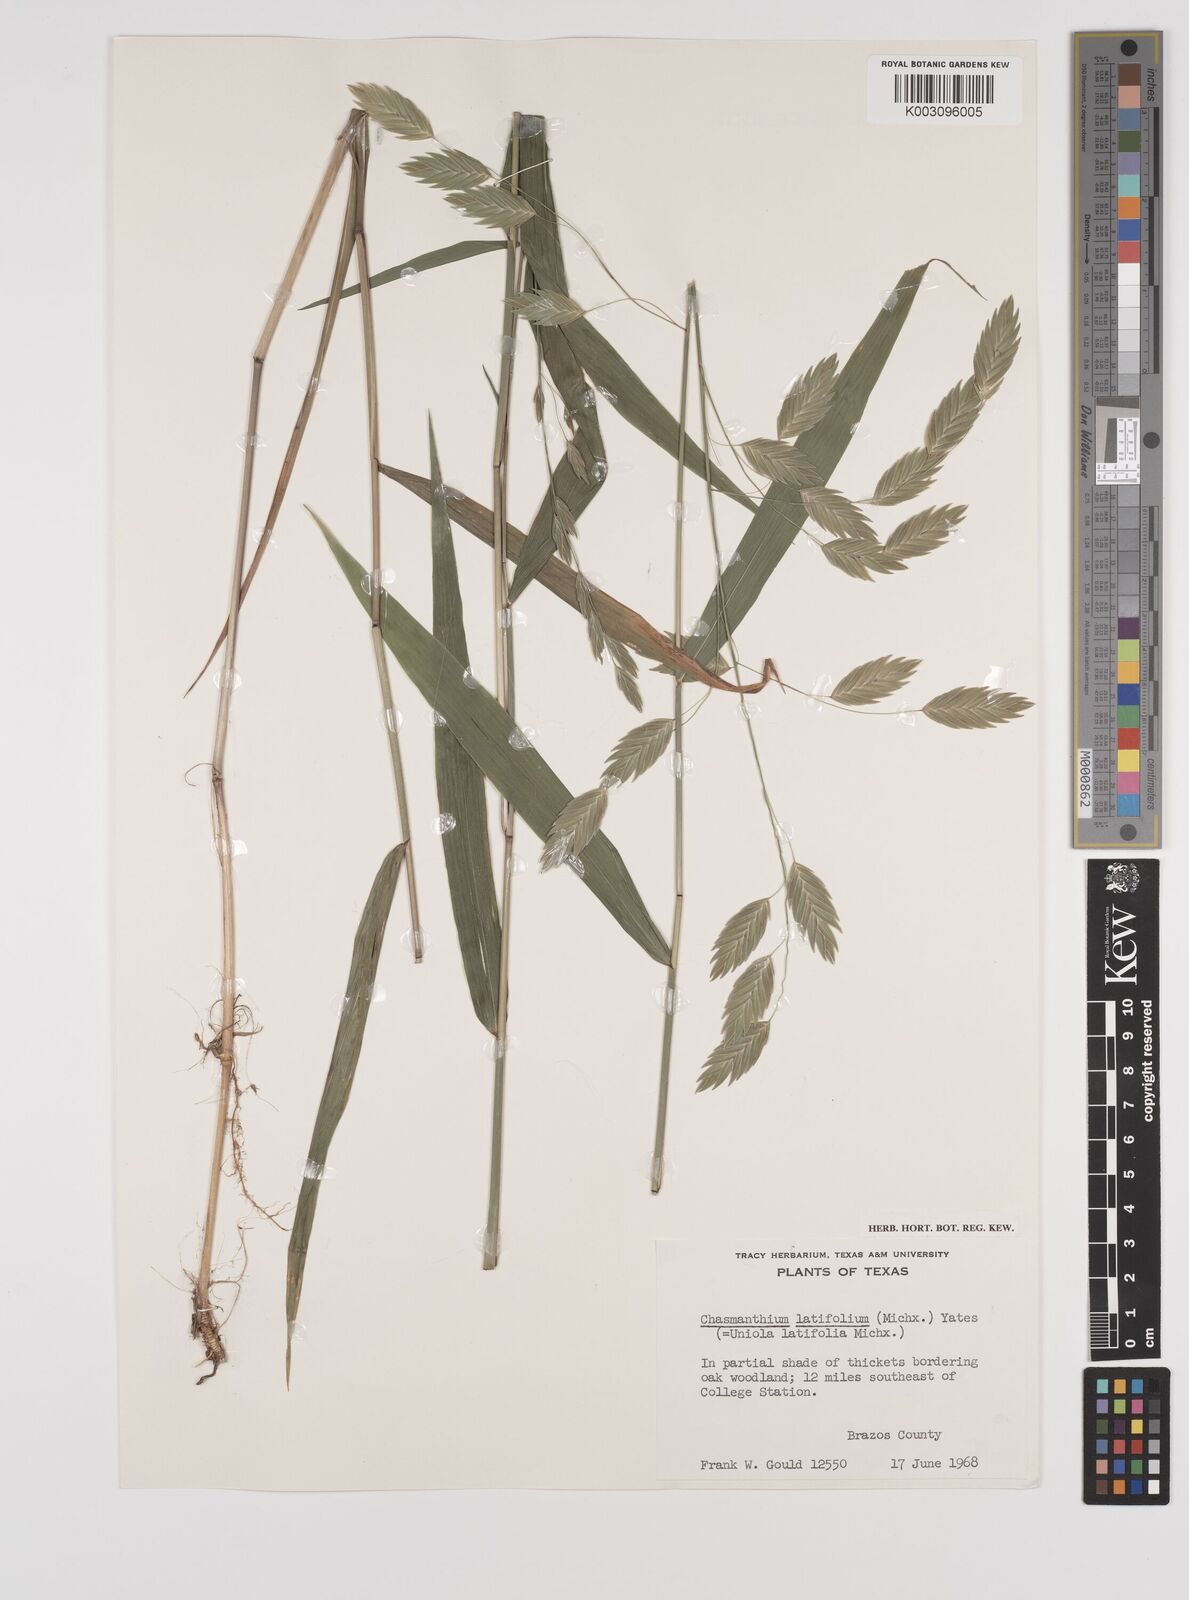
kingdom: Plantae
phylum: Tracheophyta
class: Liliopsida
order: Poales
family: Poaceae
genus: Chasmanthium
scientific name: Chasmanthium latifolium
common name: Broad-leaved chasmanthium
